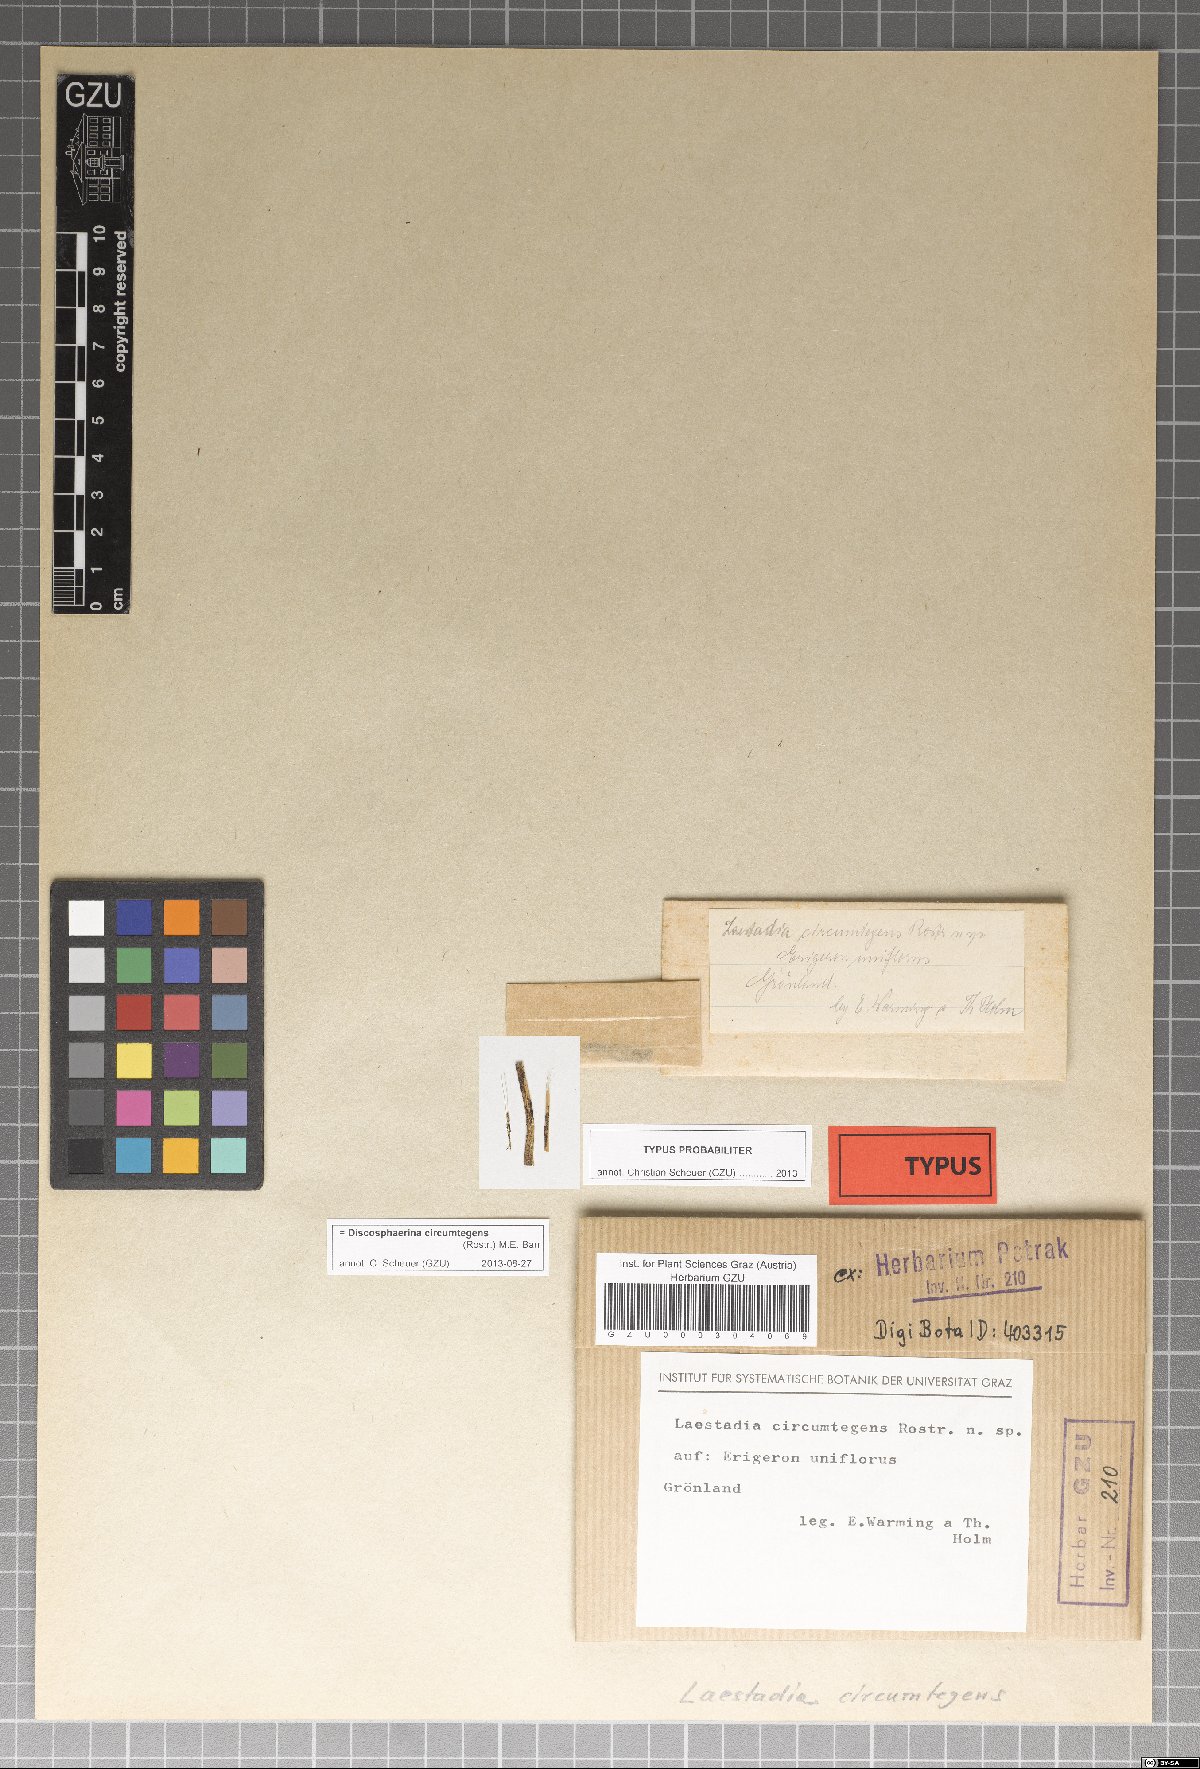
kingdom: Fungi
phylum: Ascomycota
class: Sordariomycetes
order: Xylariales
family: Hyponectriaceae
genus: Discosphaerina
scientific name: Discosphaerina circumtegens
